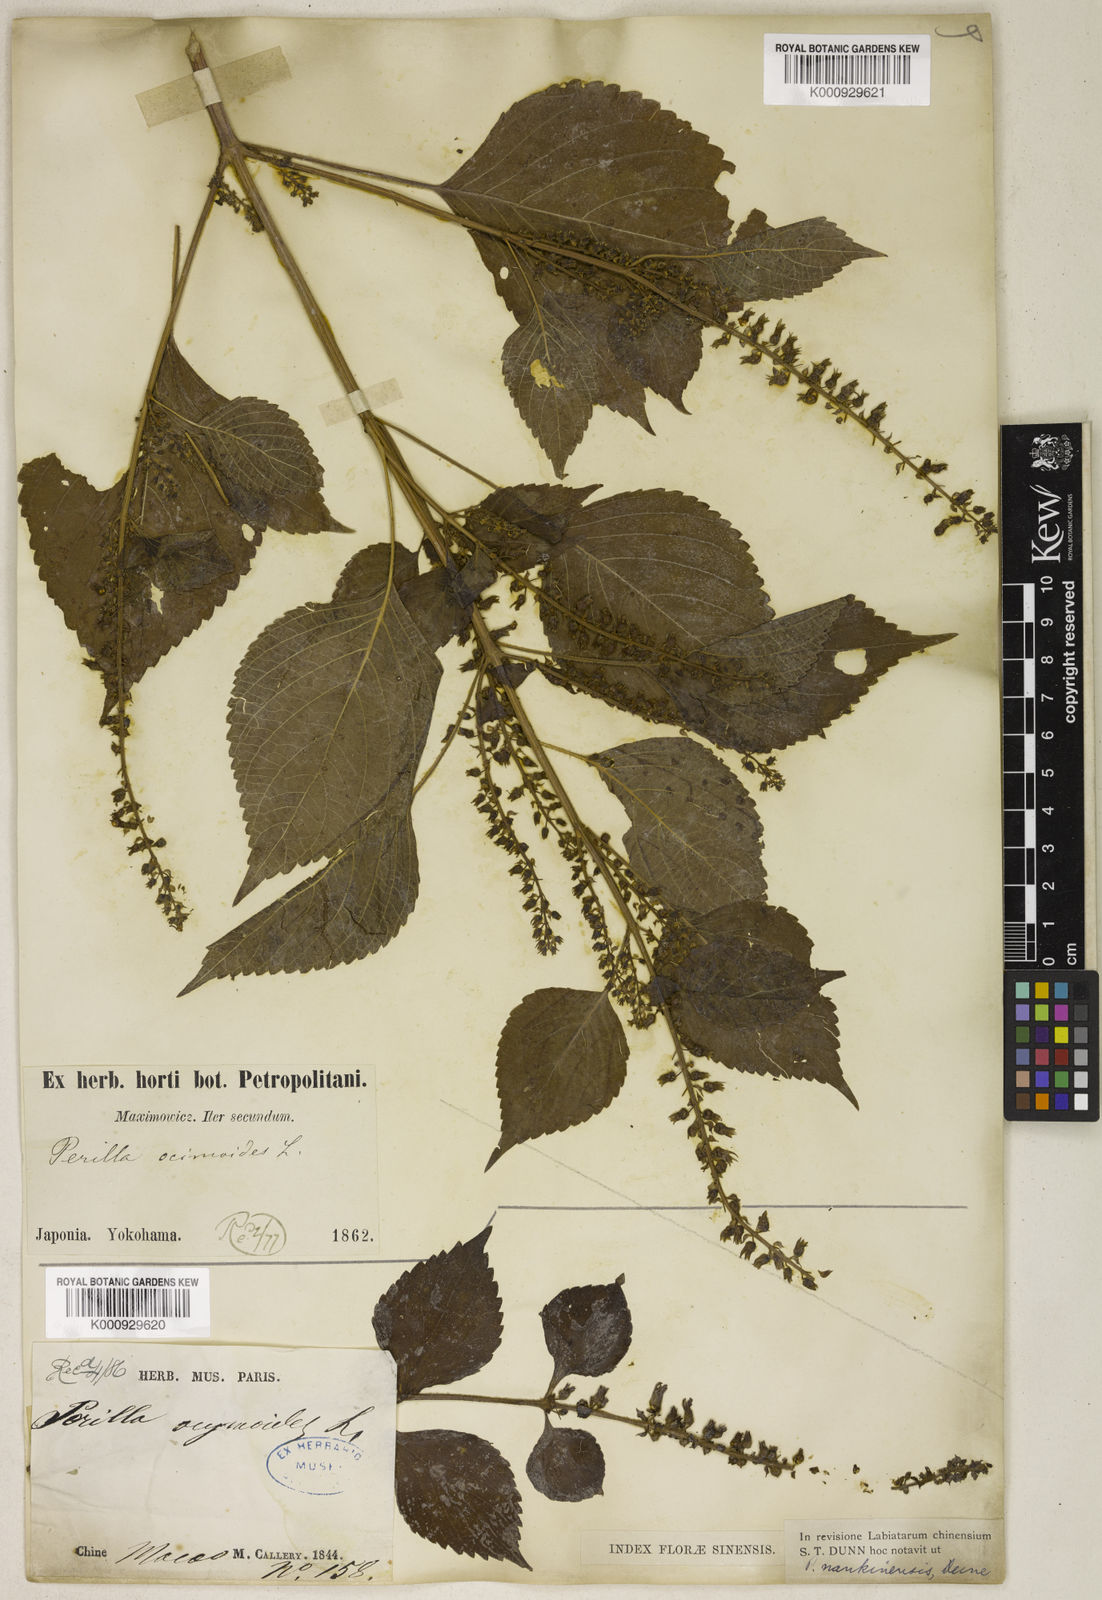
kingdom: Plantae
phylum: Tracheophyta
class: Magnoliopsida
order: Lamiales
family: Lamiaceae
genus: Perilla
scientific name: Perilla frutescens
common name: Perilla
